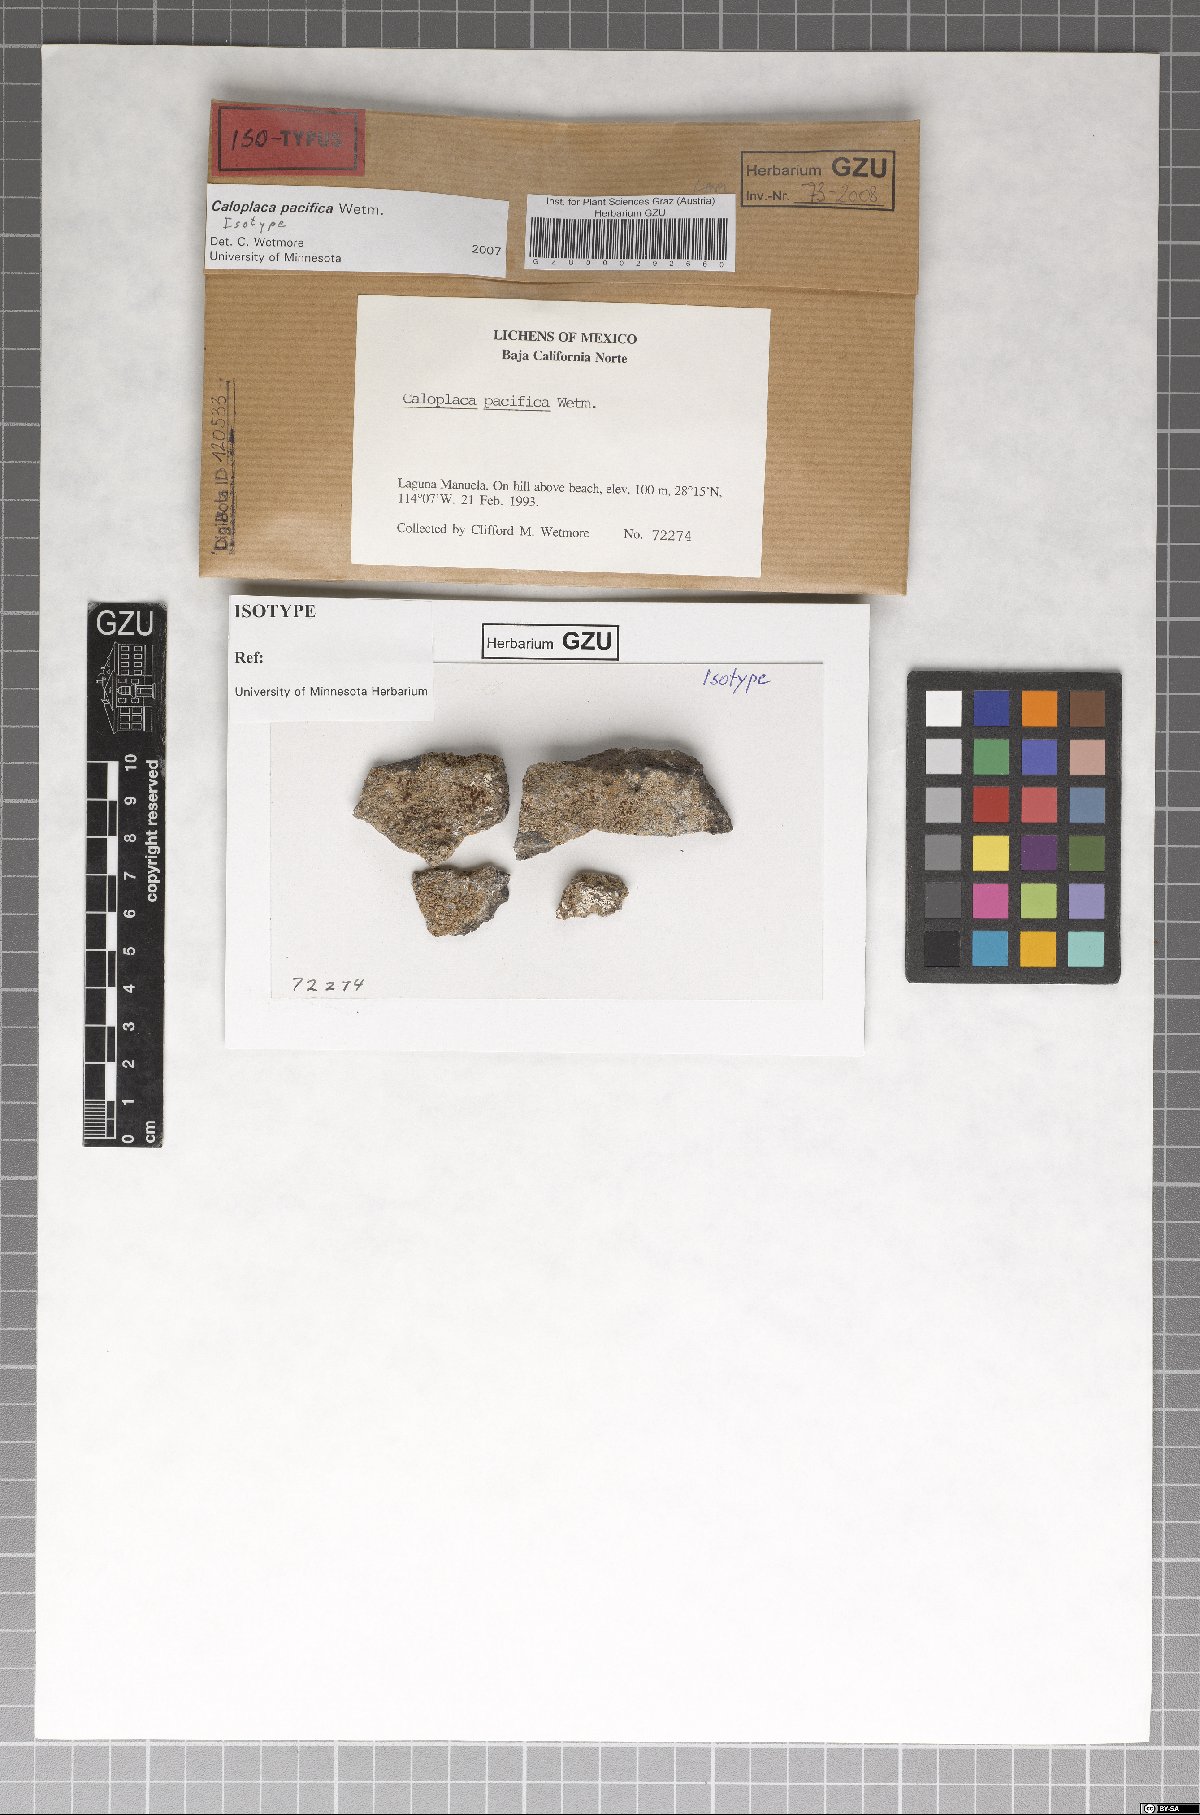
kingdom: Fungi
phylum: Ascomycota
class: Lecanoromycetes
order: Teloschistales
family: Teloschistaceae
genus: Caloplaca
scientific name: Caloplaca pacifica
